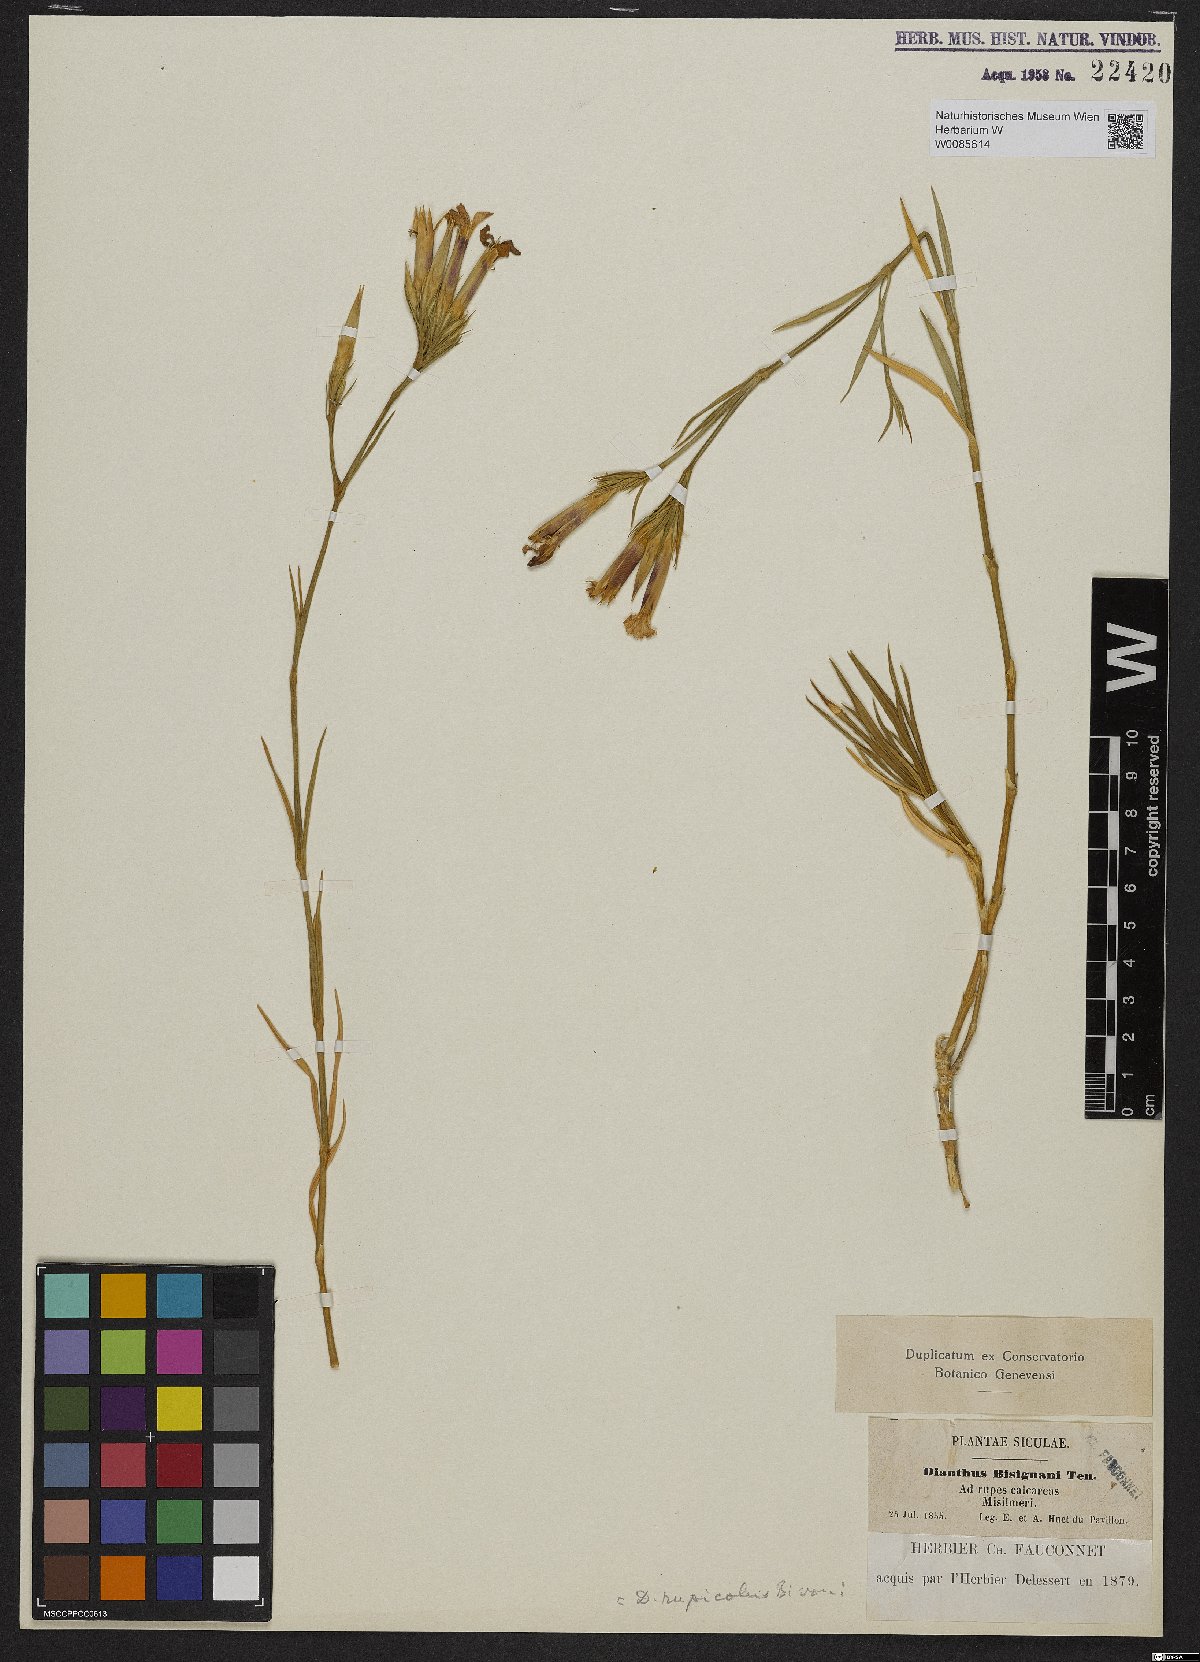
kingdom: Plantae
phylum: Tracheophyta
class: Magnoliopsida
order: Caryophyllales
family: Caryophyllaceae
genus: Dianthus
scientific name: Dianthus rupicola
